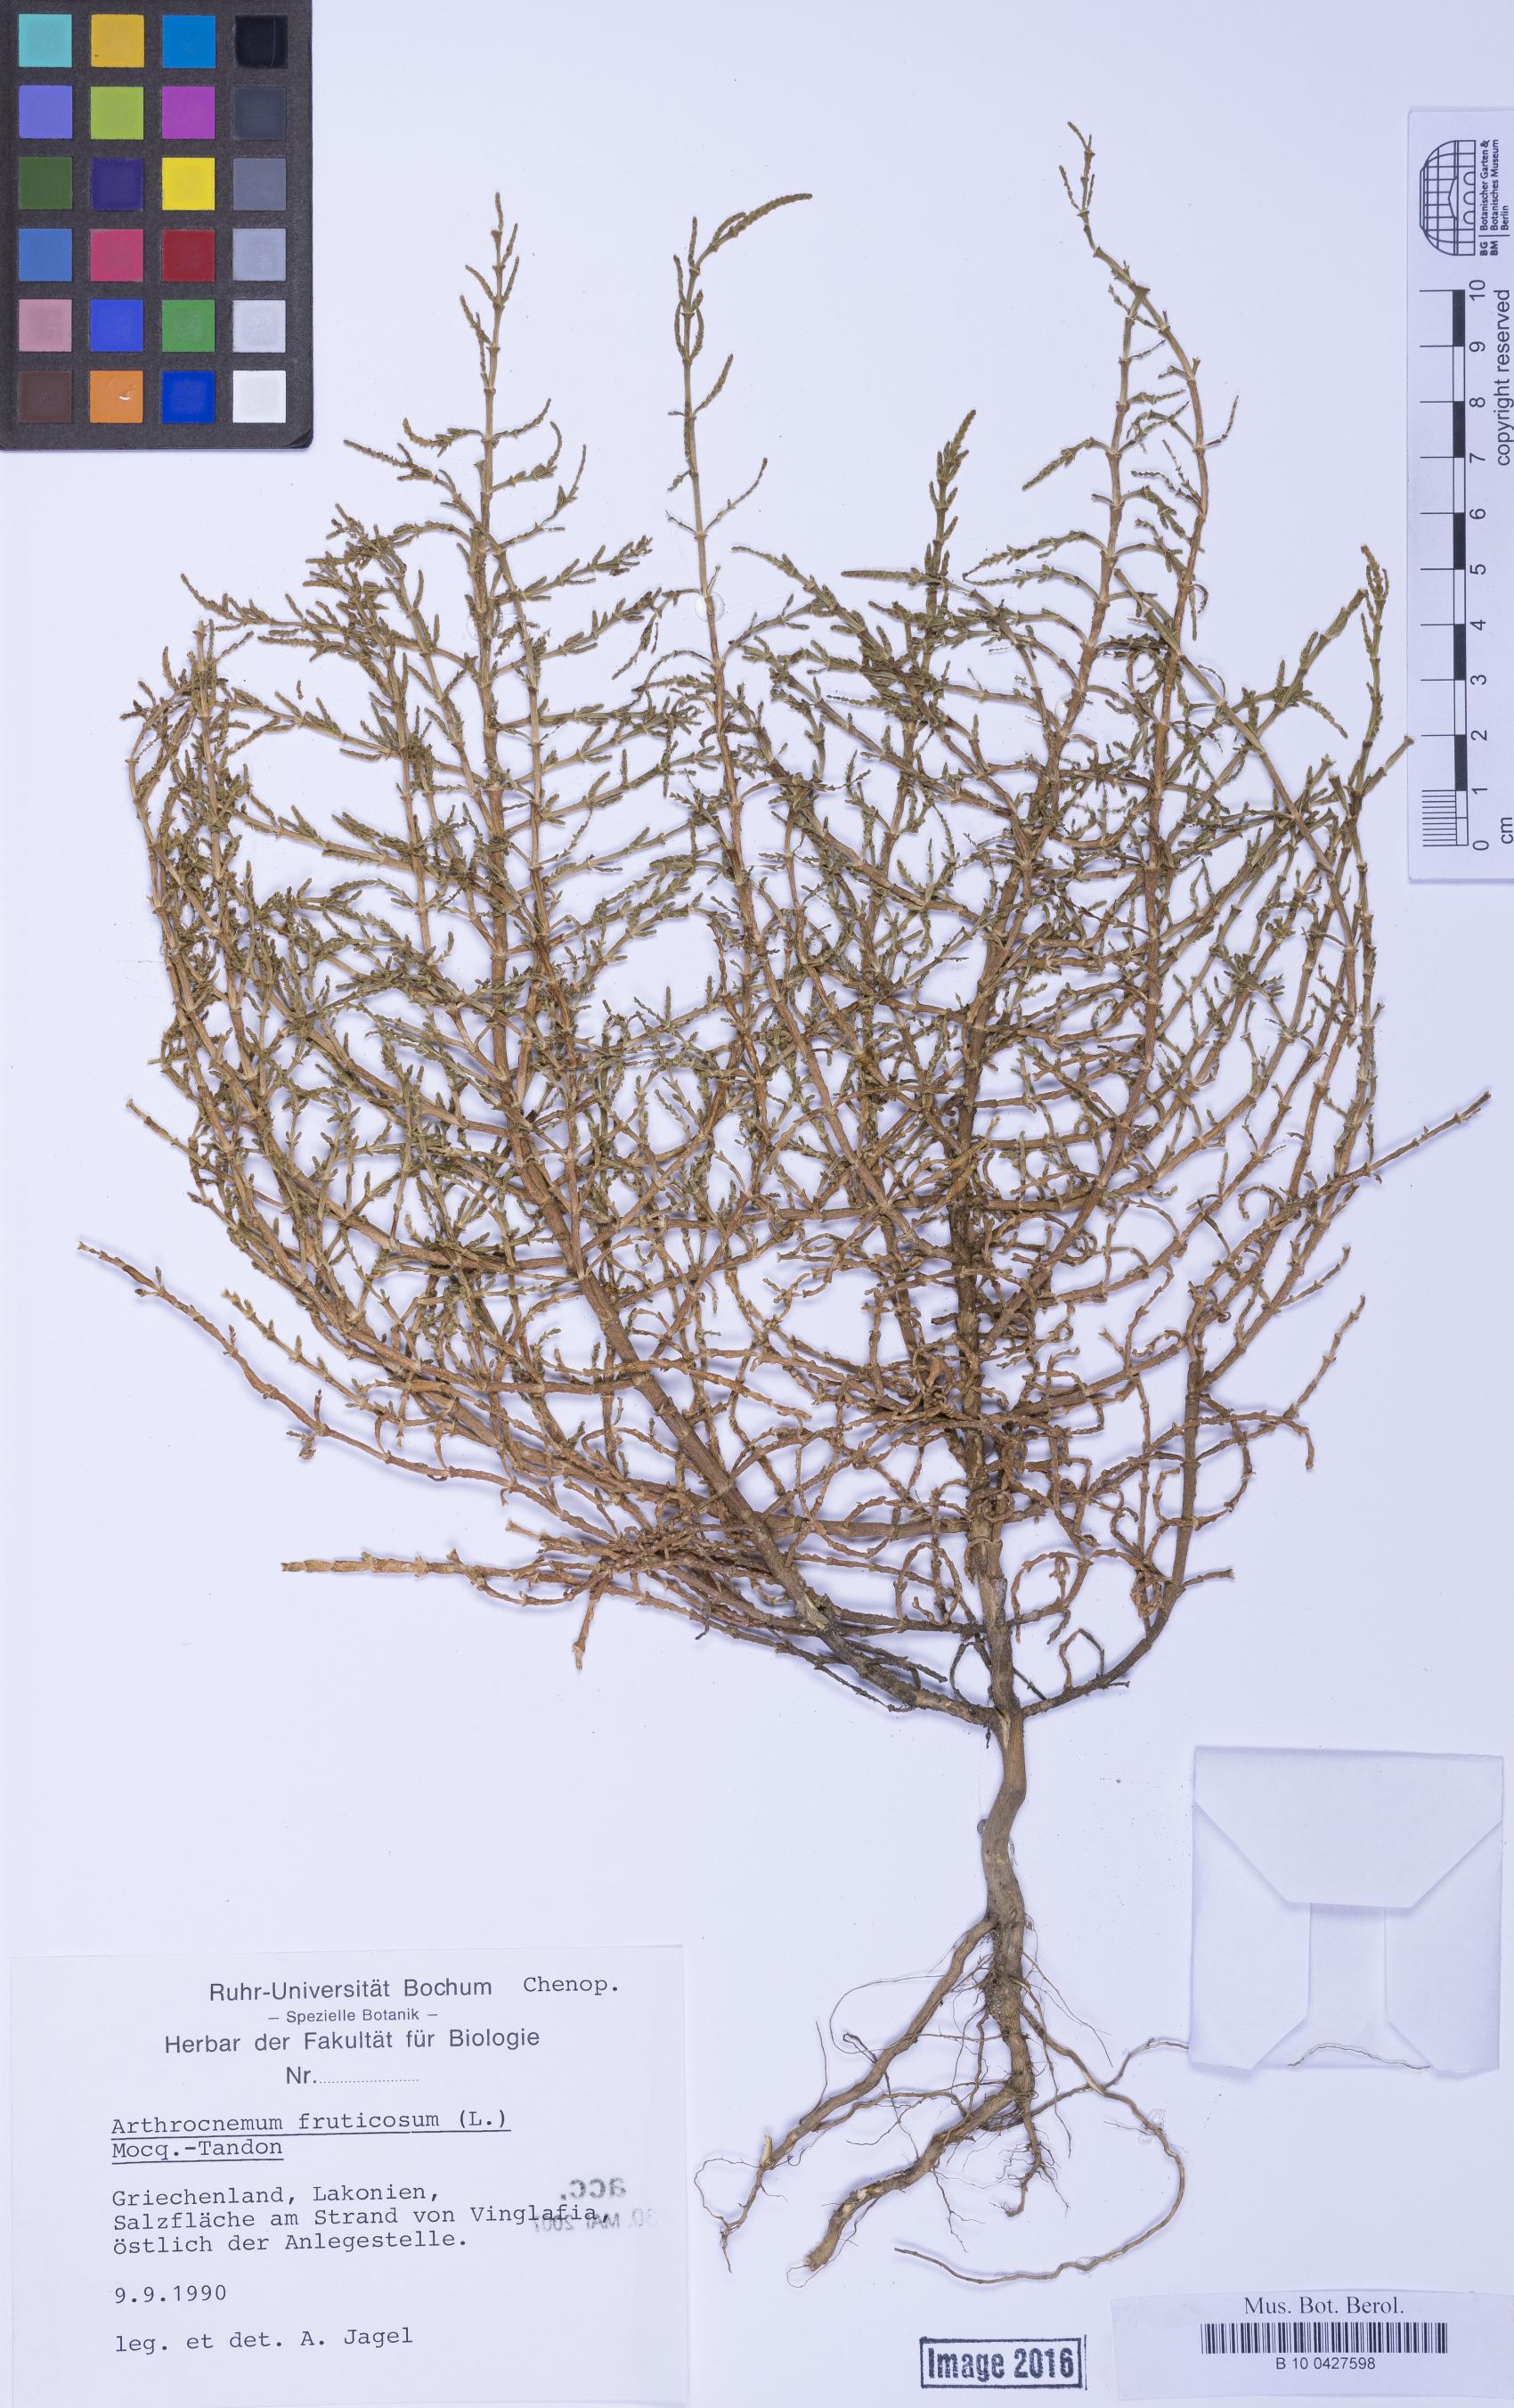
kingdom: Plantae
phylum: Tracheophyta
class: Magnoliopsida
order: Caryophyllales
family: Amaranthaceae
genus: Salicornia
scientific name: Salicornia perennans
